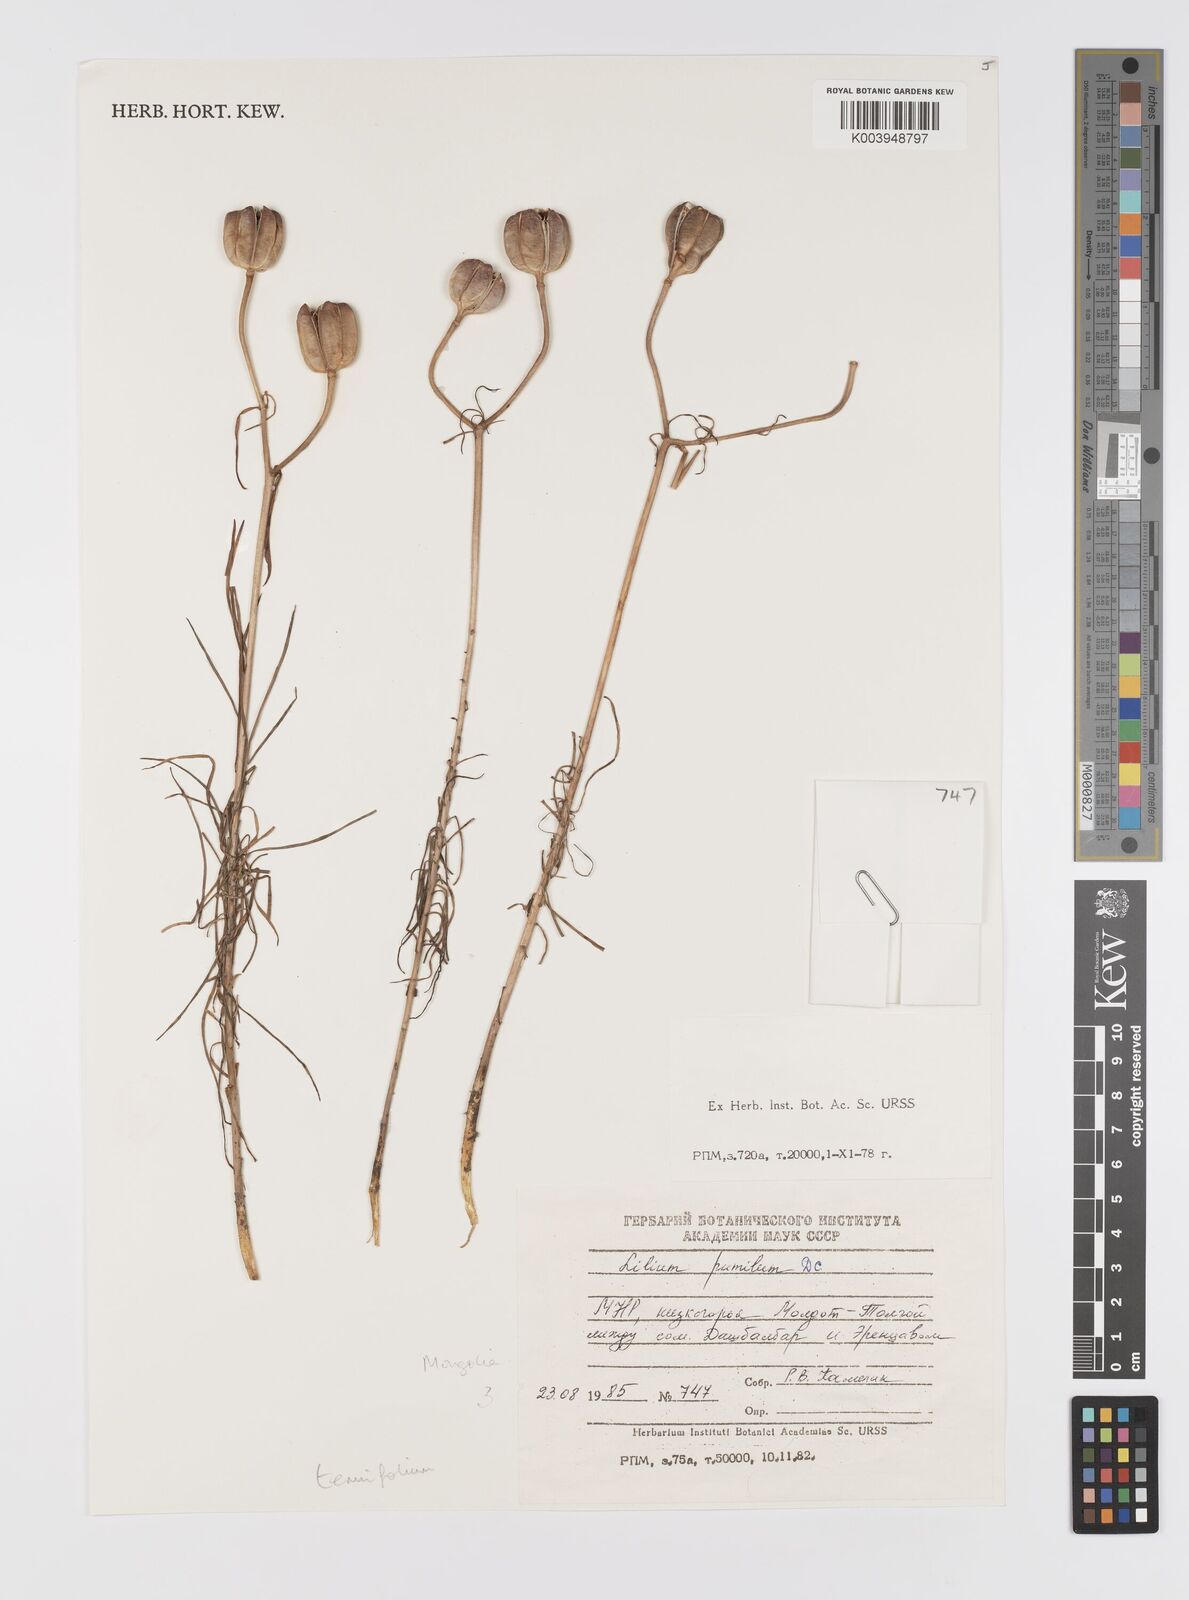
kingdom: Plantae
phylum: Tracheophyta
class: Liliopsida
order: Liliales
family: Liliaceae
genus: Lilium
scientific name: Lilium pumilum
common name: Coral lily
